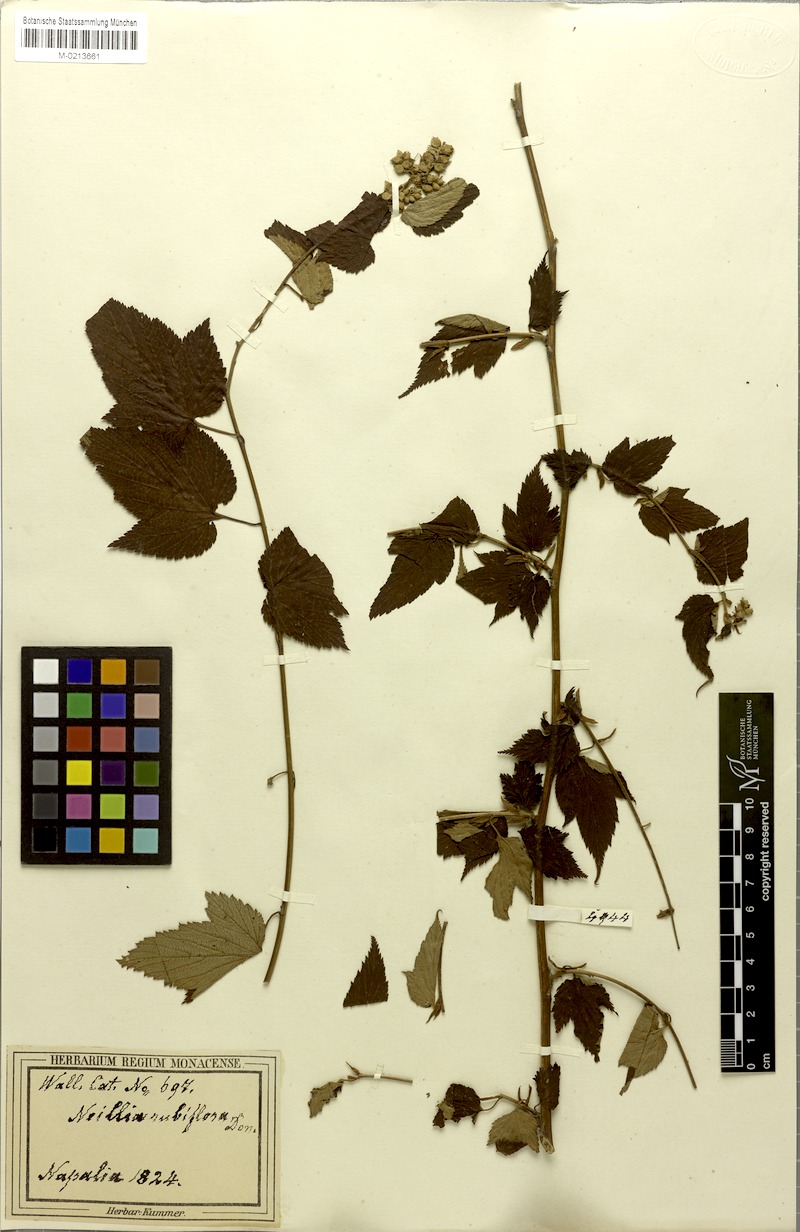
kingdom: Plantae
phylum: Tracheophyta
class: Magnoliopsida
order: Rosales
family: Rosaceae
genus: Neillia
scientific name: Neillia rubiflora
